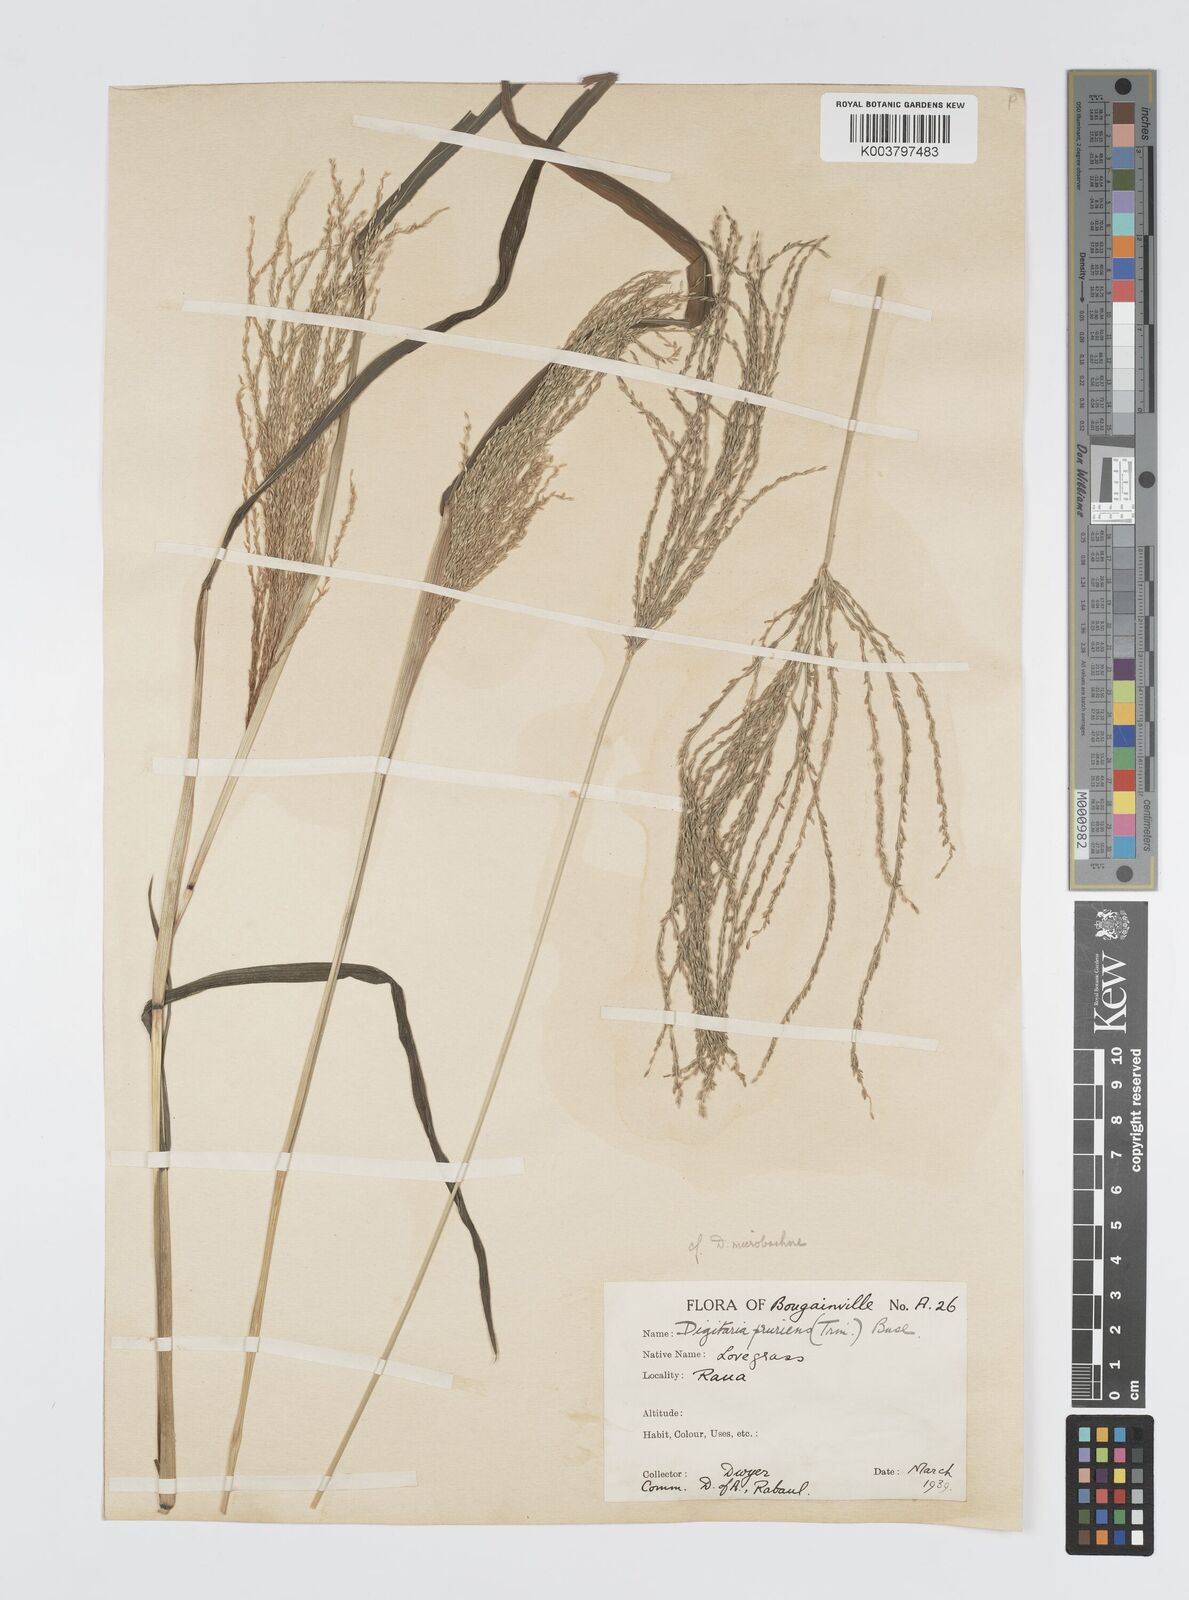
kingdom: Plantae
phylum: Tracheophyta
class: Liliopsida
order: Poales
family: Poaceae
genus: Digitaria
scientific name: Digitaria setigera
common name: East indian crabgrass
